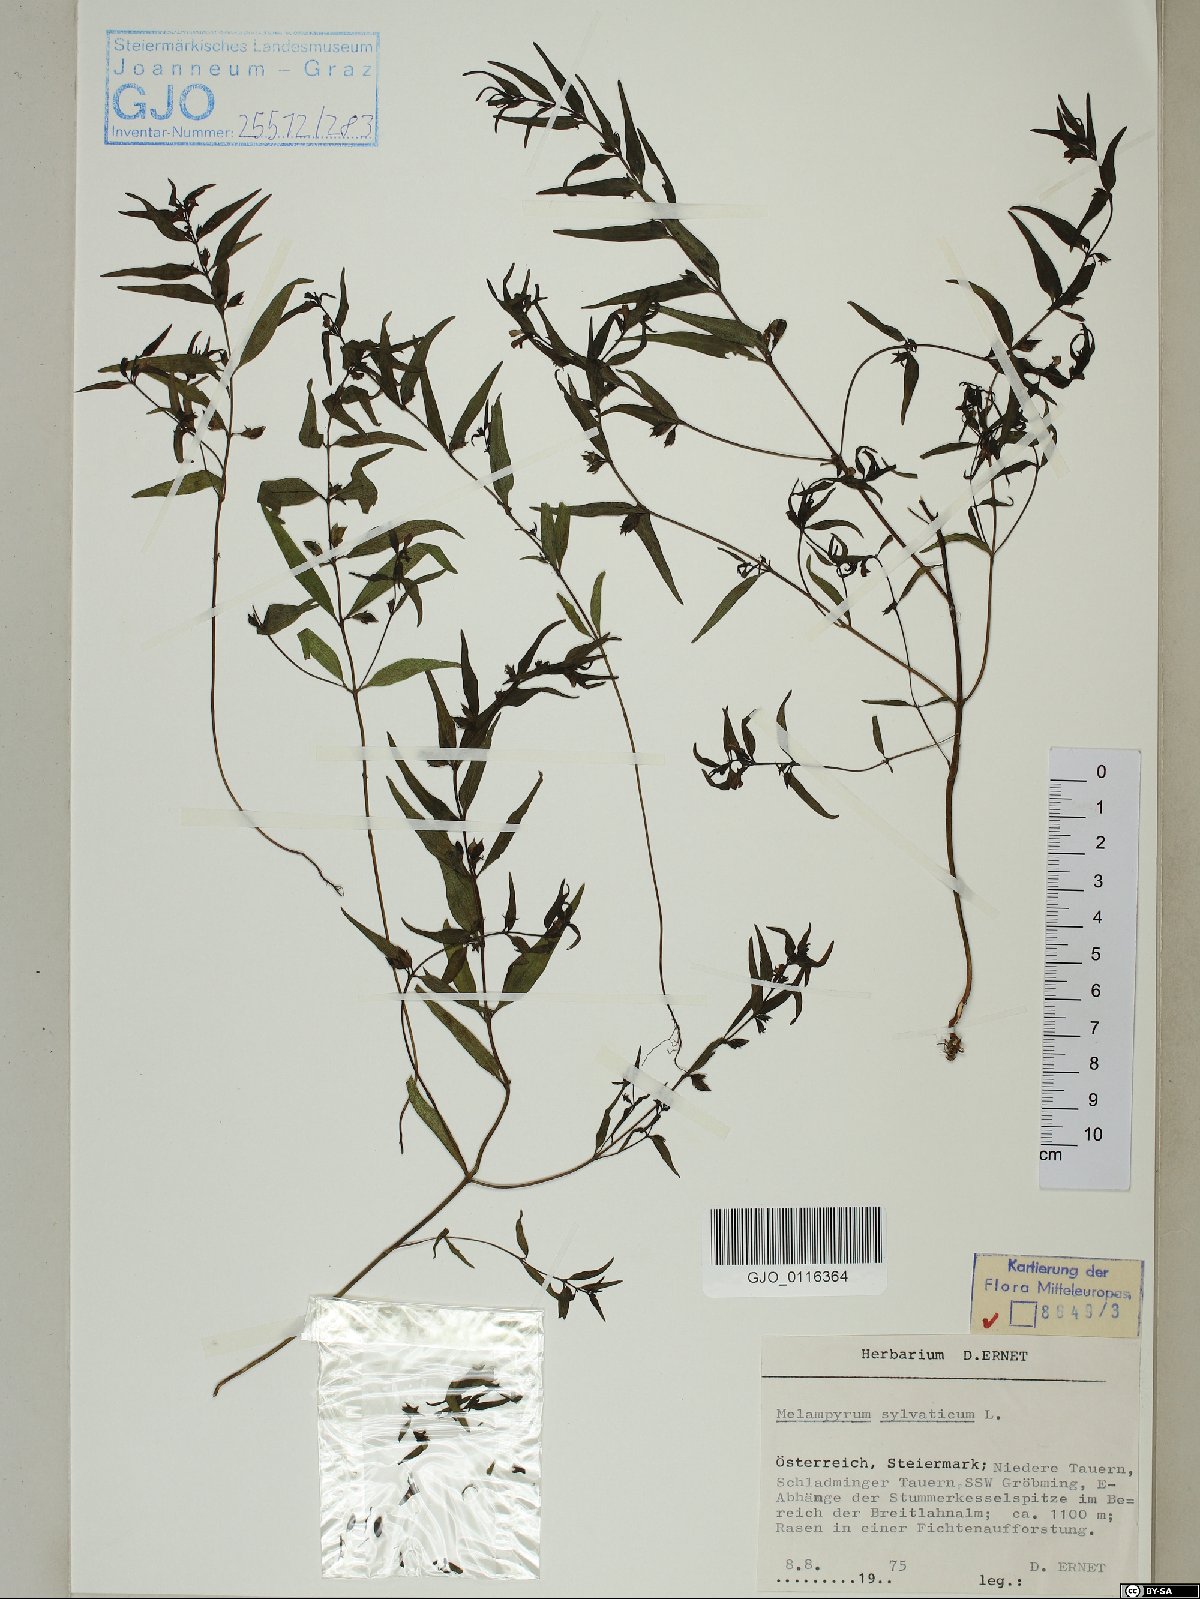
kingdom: Plantae
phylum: Tracheophyta
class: Magnoliopsida
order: Lamiales
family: Orobanchaceae
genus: Melampyrum
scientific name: Melampyrum sylvaticum
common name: Small cow-wheat
